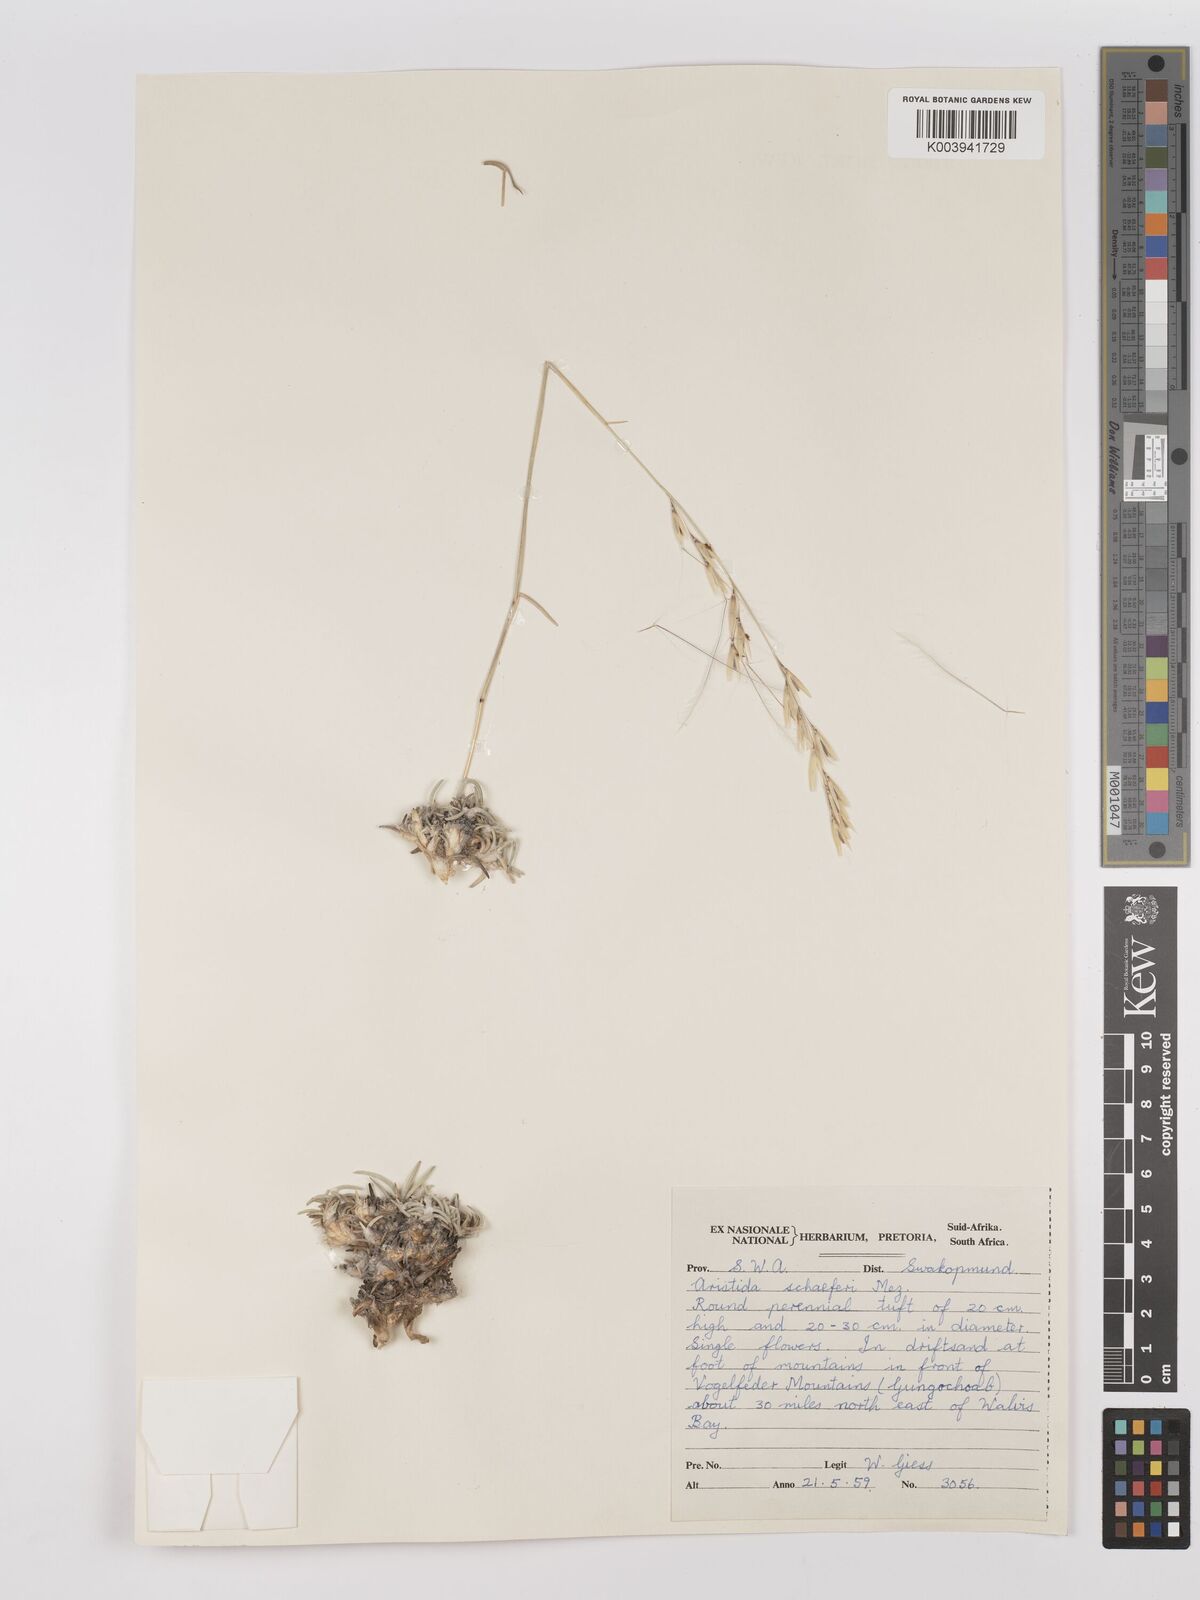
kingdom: Plantae
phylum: Tracheophyta
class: Liliopsida
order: Poales
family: Poaceae
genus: Stipagrostis
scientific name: Stipagrostis schaeferi
